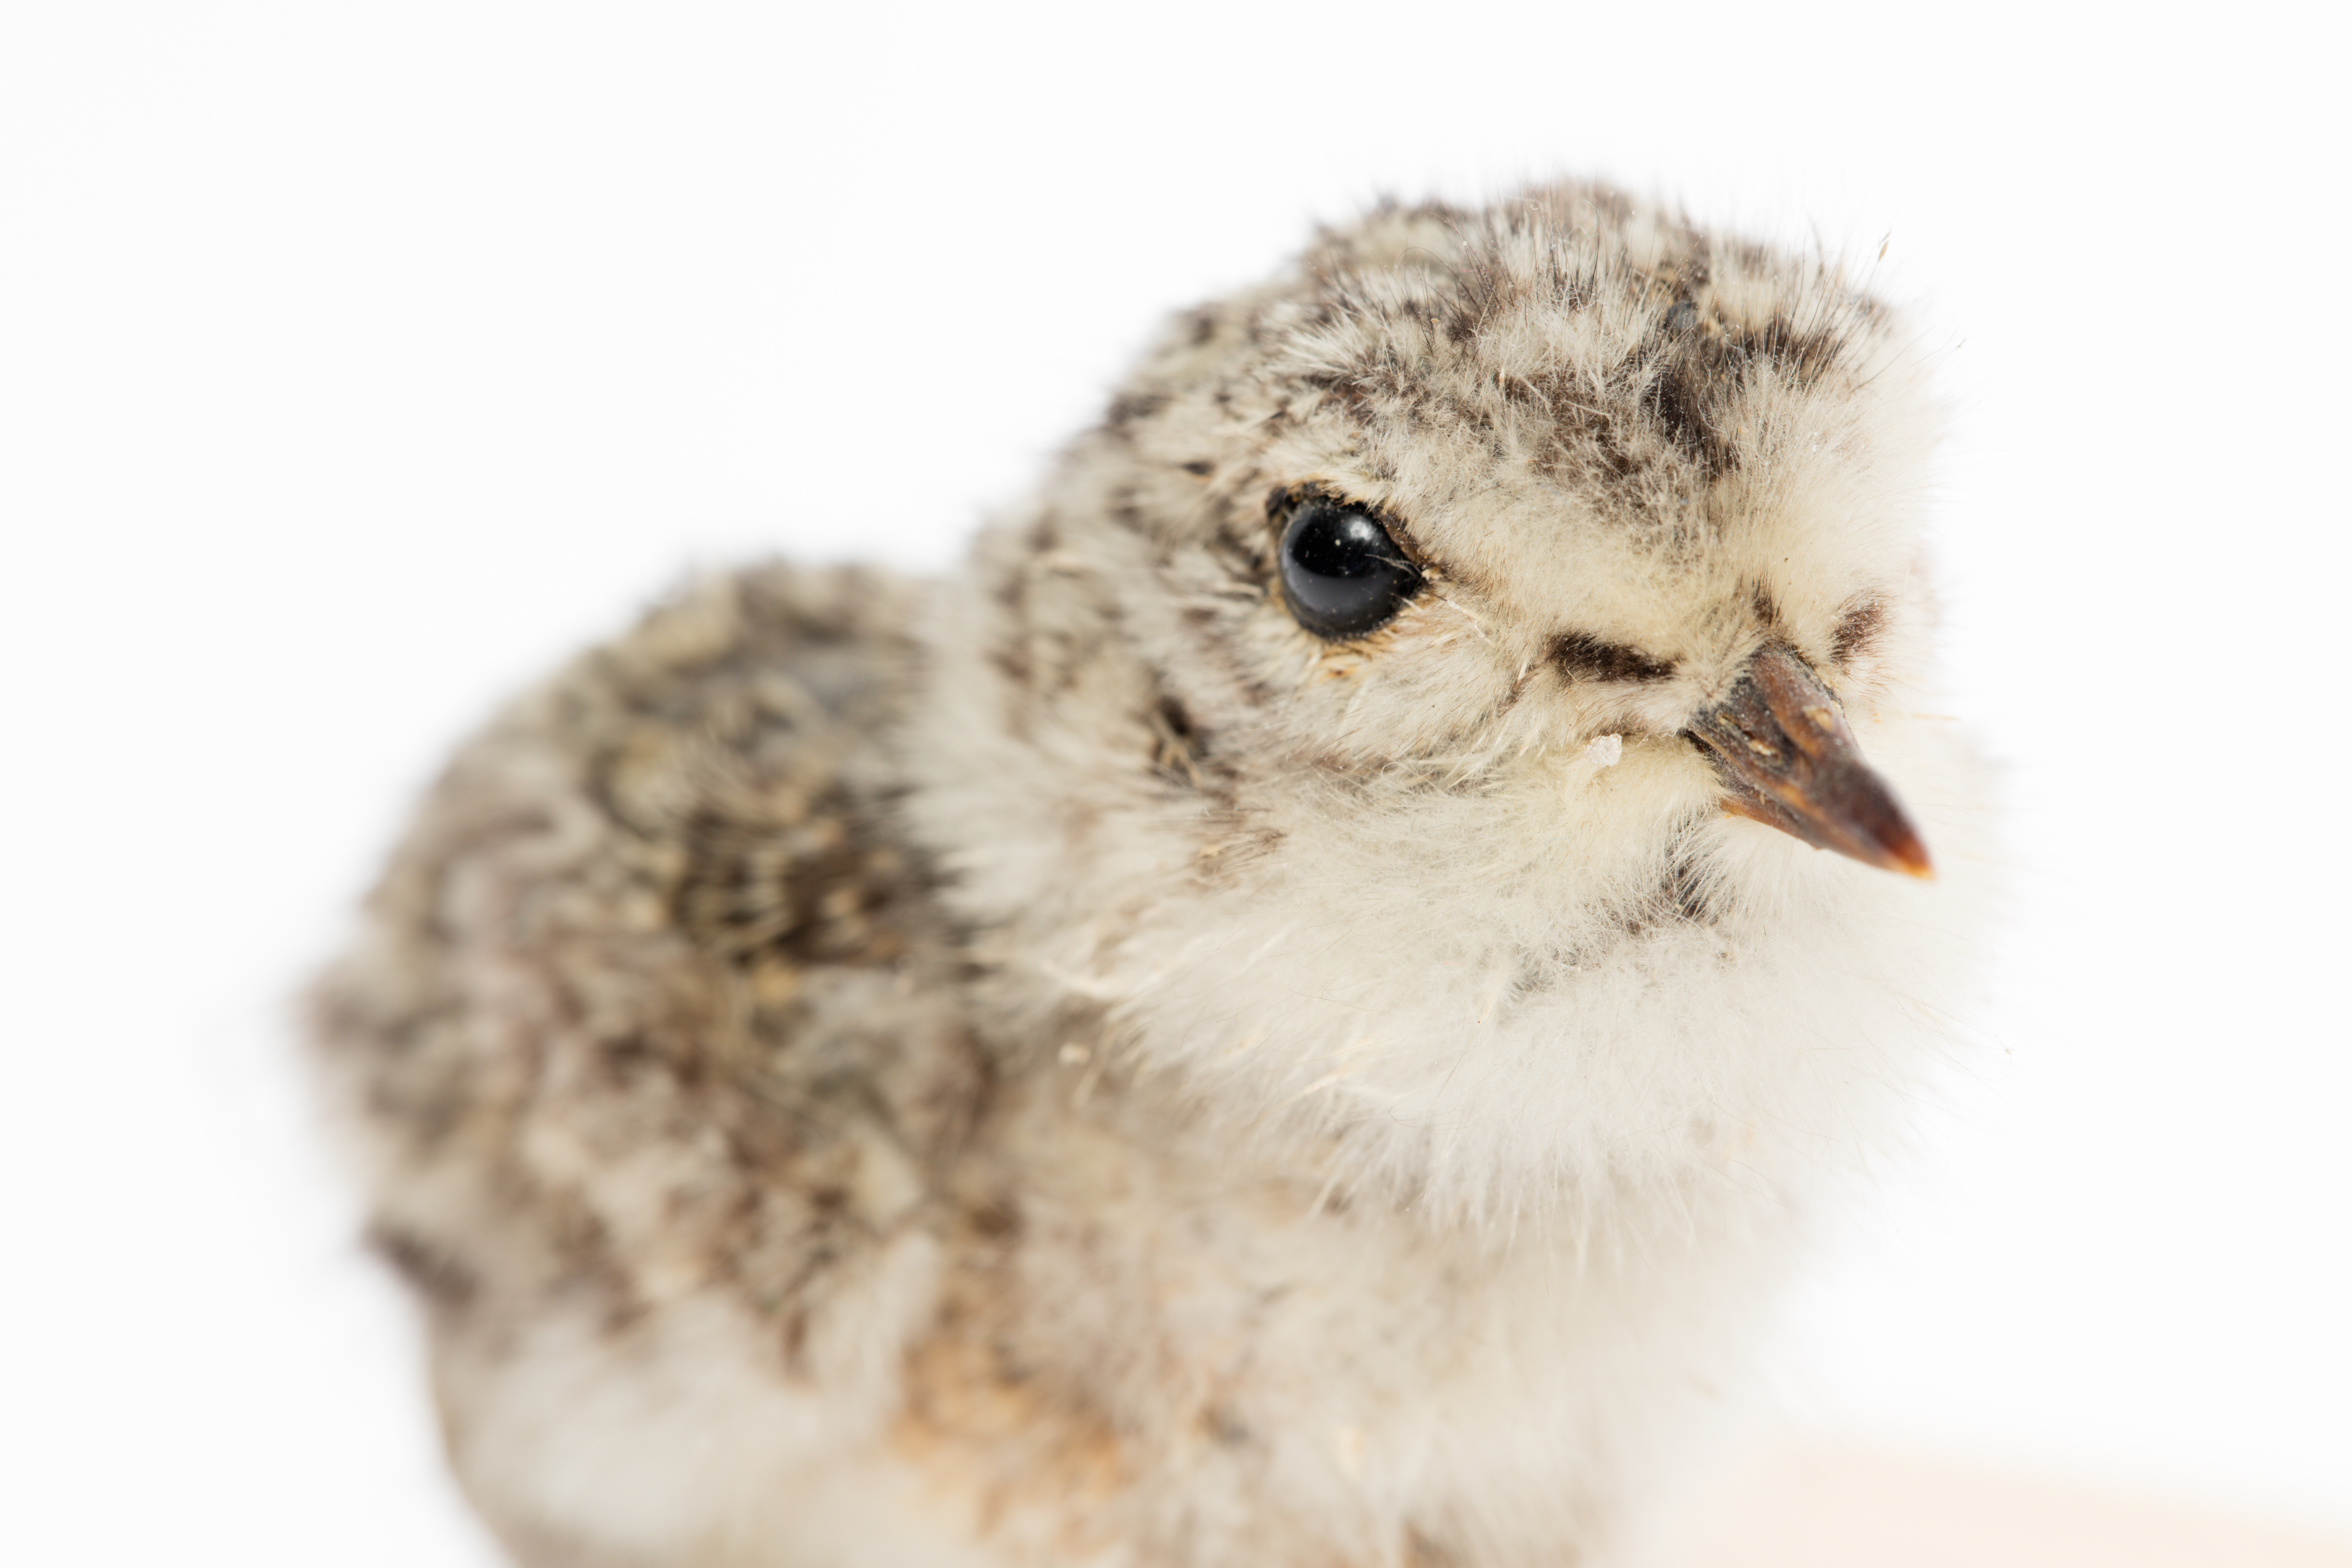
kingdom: Animalia
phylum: Chordata
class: Aves
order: Charadriiformes
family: Charadriidae
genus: Charadrius
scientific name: Charadrius bicinctus
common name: Double-banded plover
